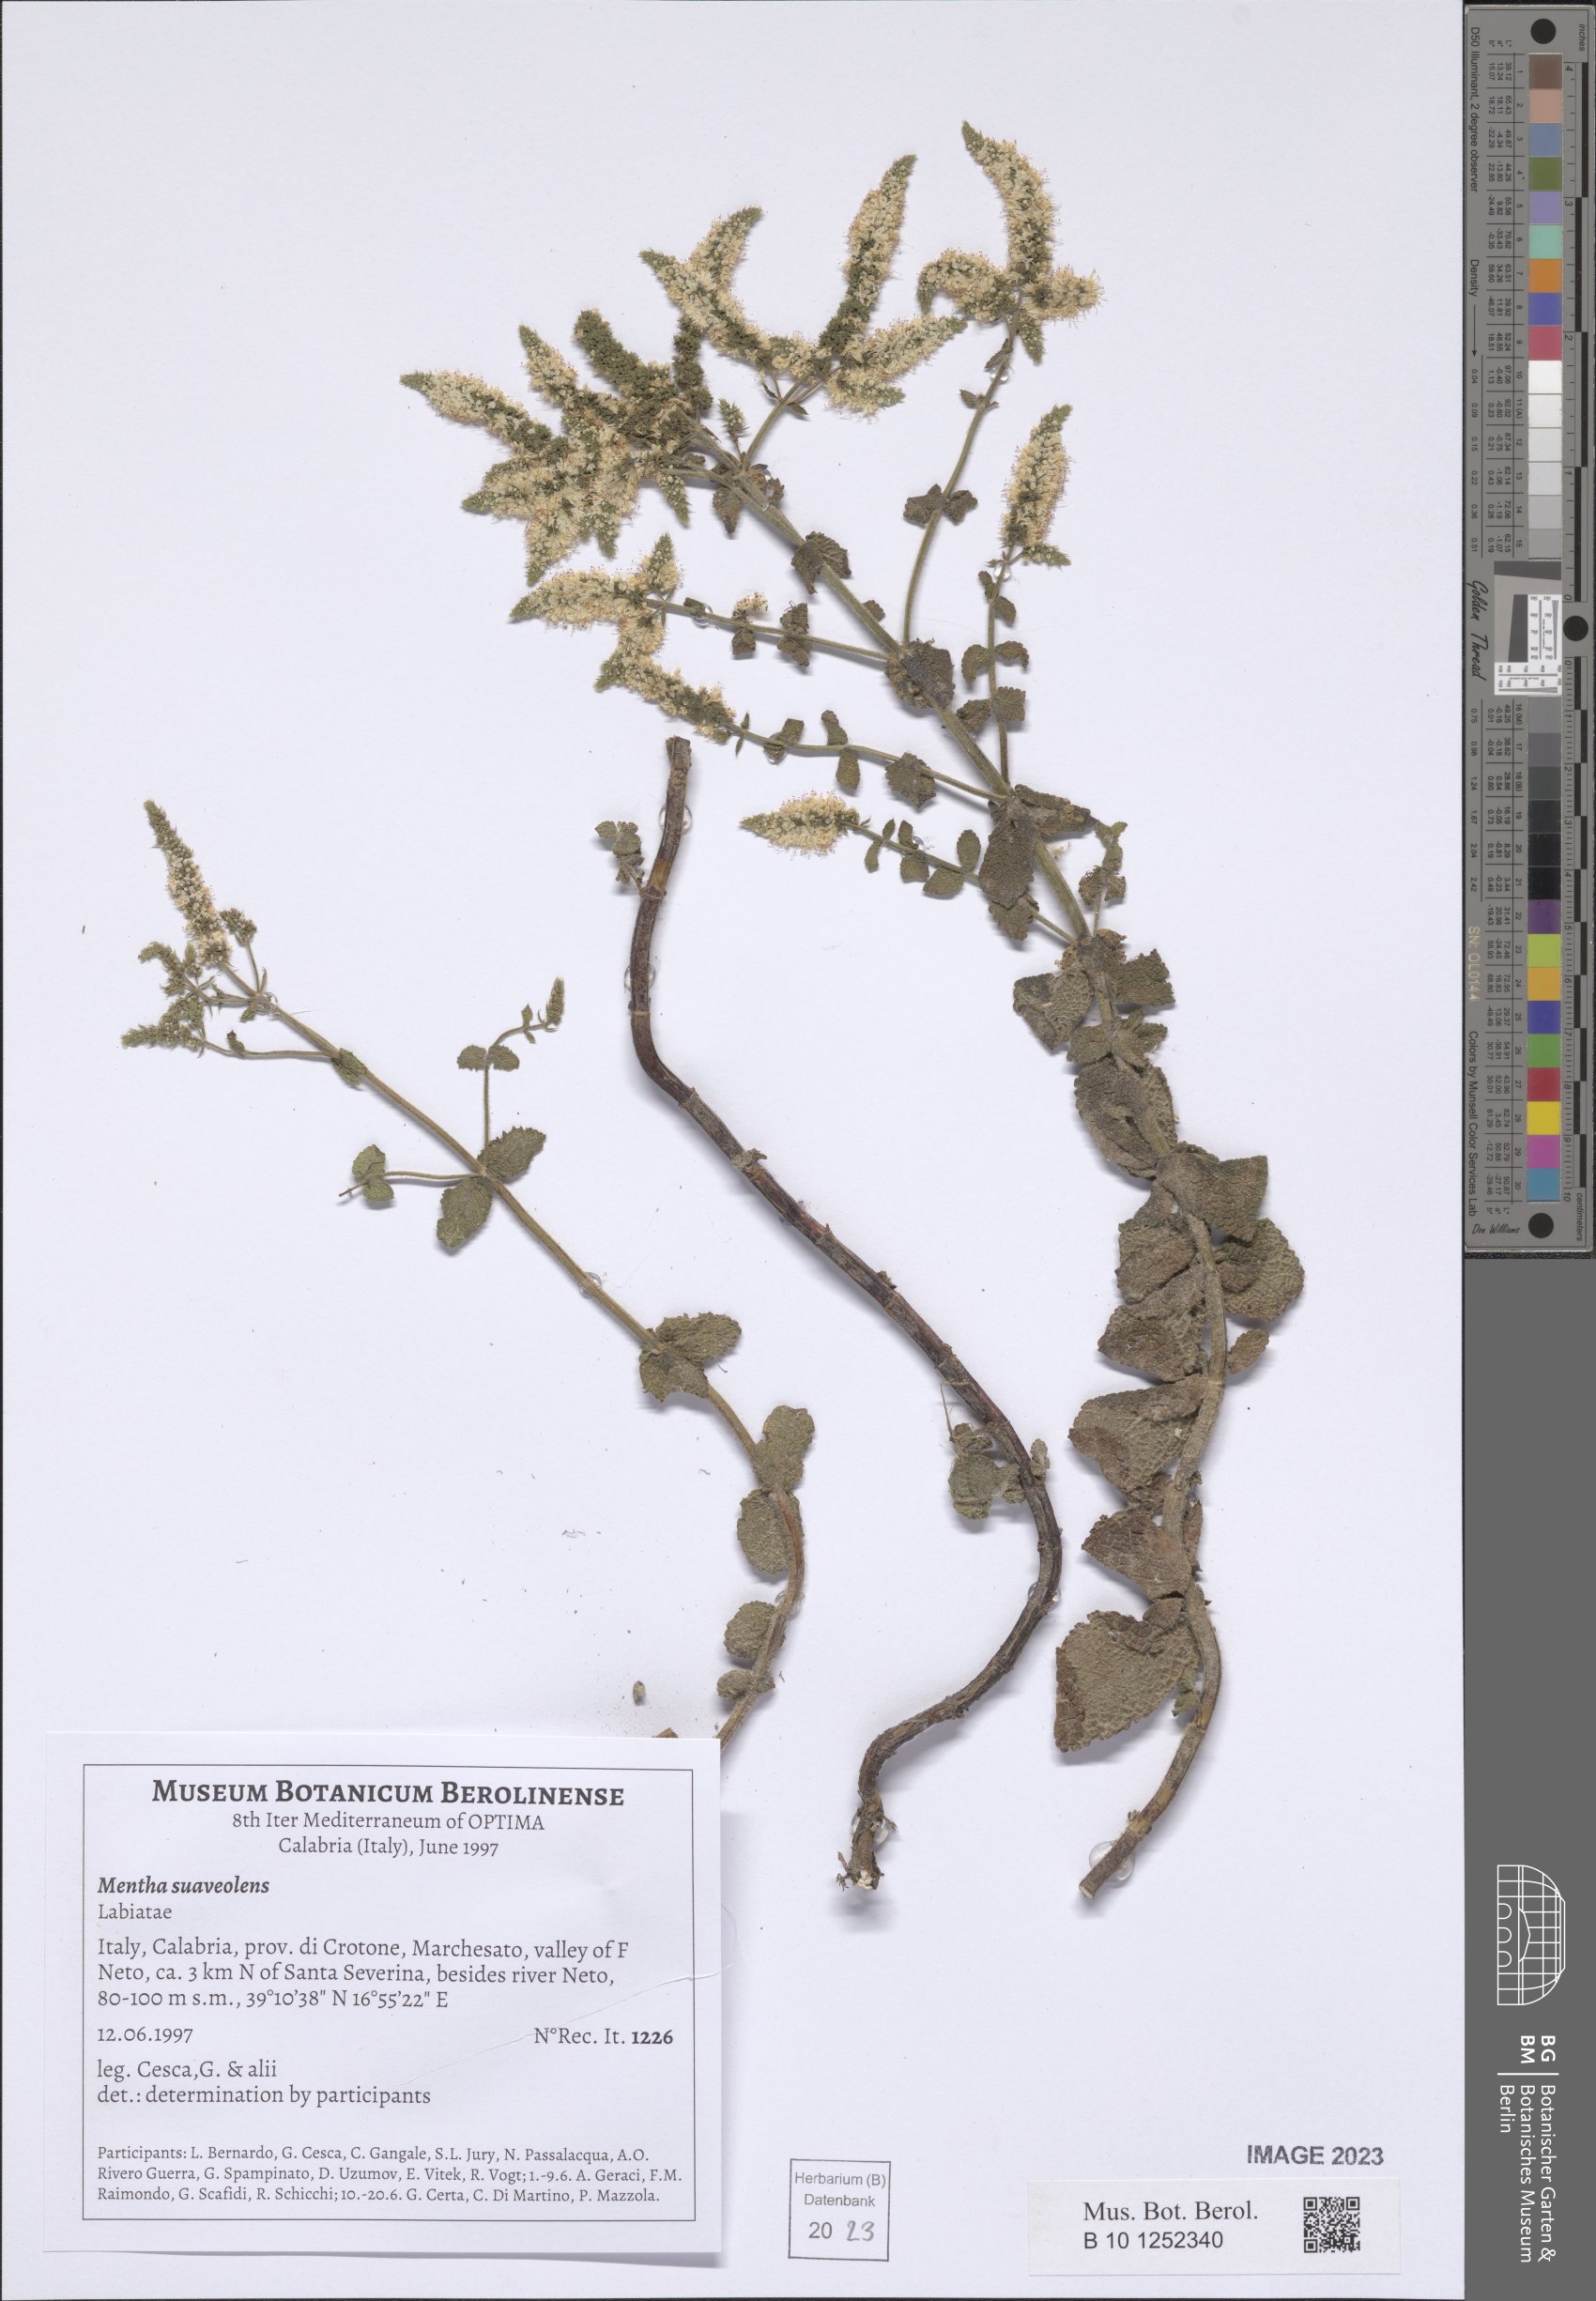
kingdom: Plantae
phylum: Tracheophyta
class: Magnoliopsida
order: Lamiales
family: Lamiaceae
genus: Mentha
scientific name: Mentha suaveolens
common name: Apple mint
